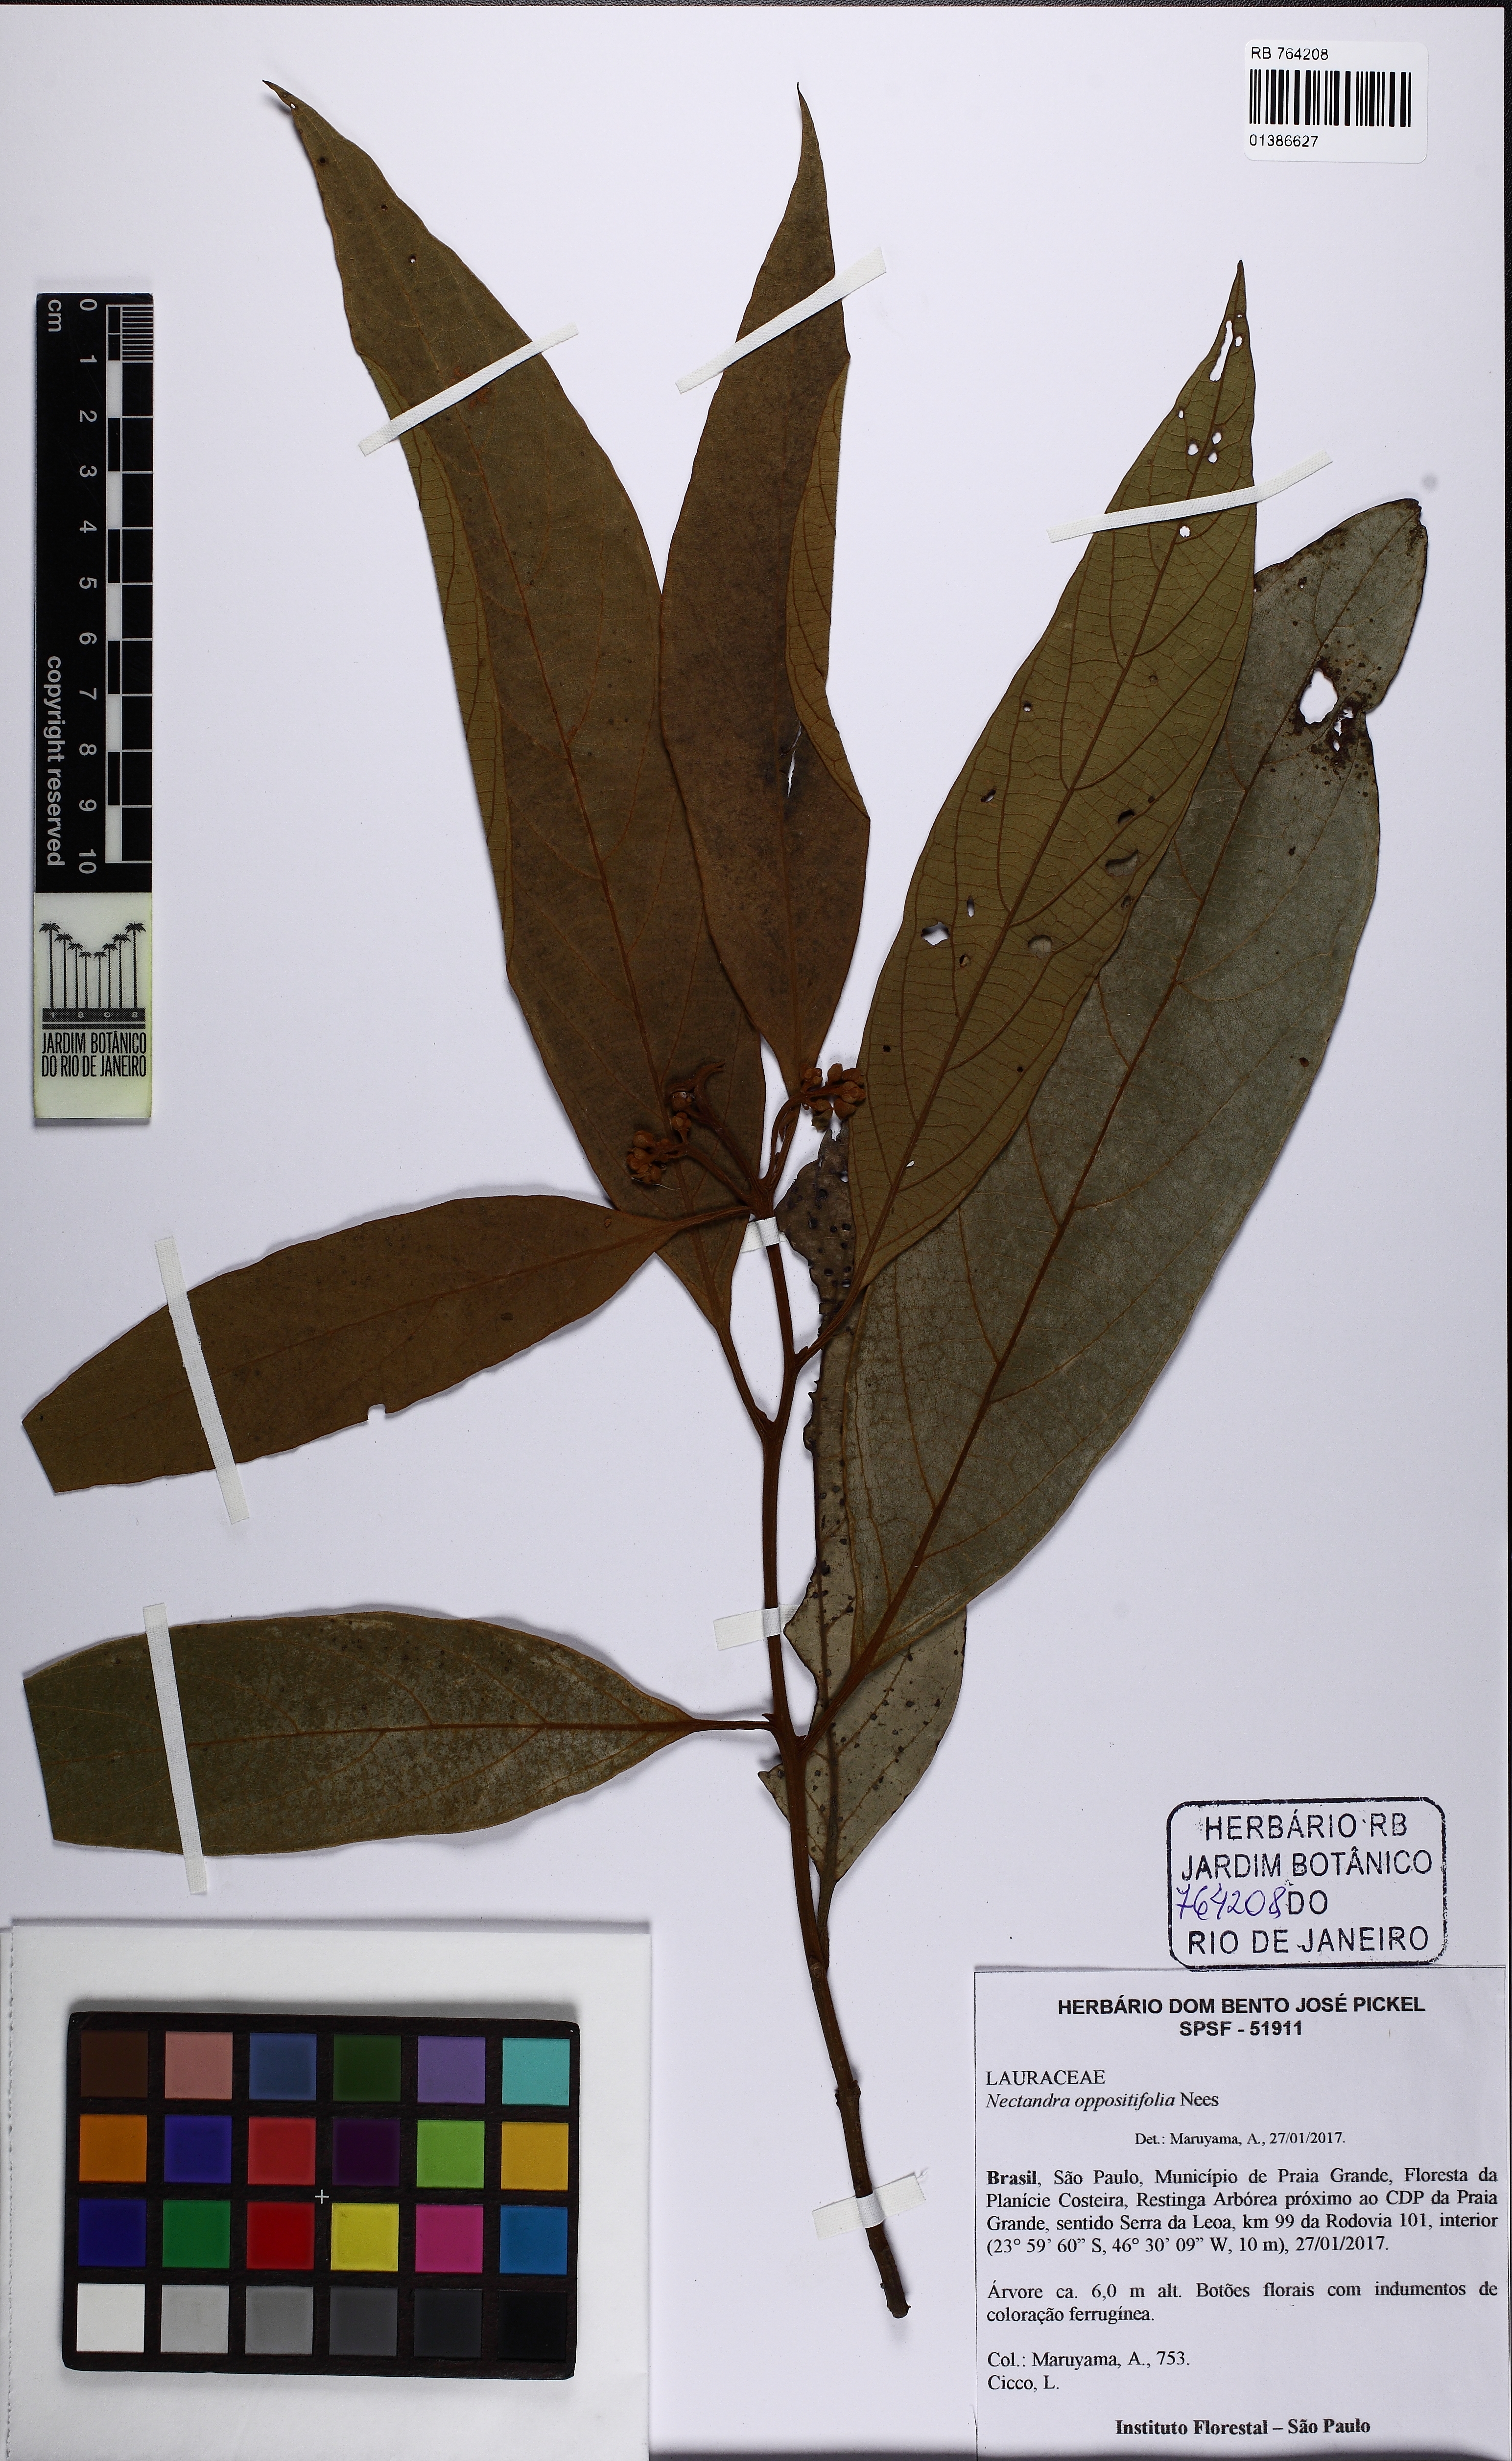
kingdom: Plantae
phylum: Tracheophyta
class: Magnoliopsida
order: Laurales
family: Lauraceae
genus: Nectandra
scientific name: Nectandra oppositifolia
